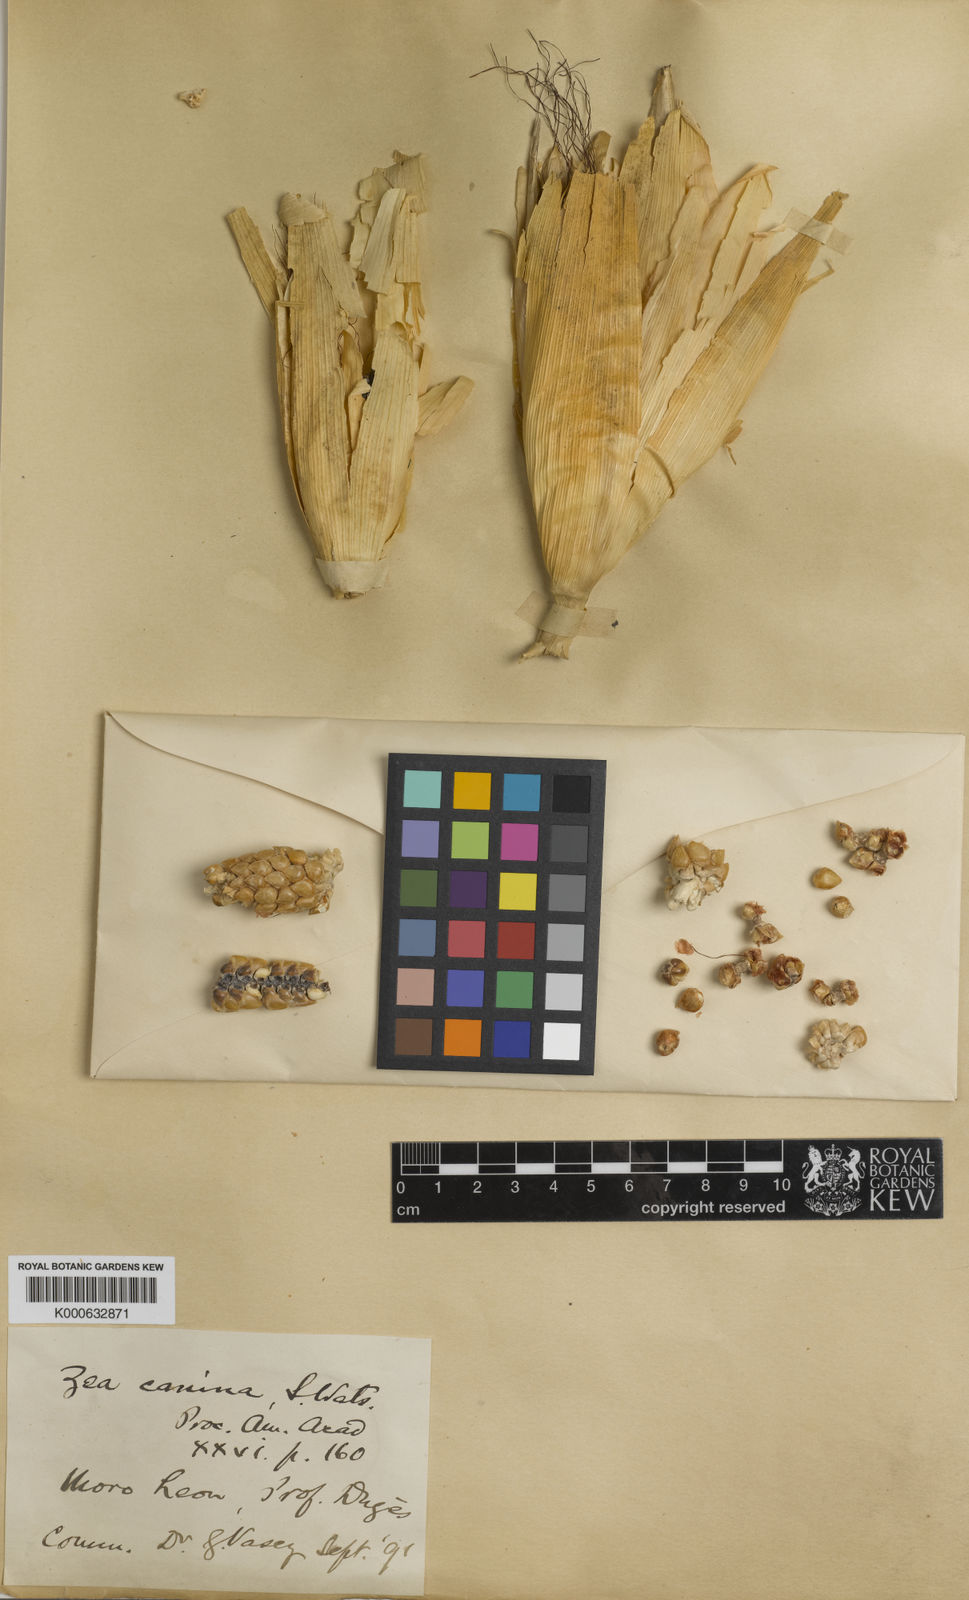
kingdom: Plantae
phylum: Tracheophyta
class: Liliopsida
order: Poales
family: Poaceae
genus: Zea
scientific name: Zea mays
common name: Maize
